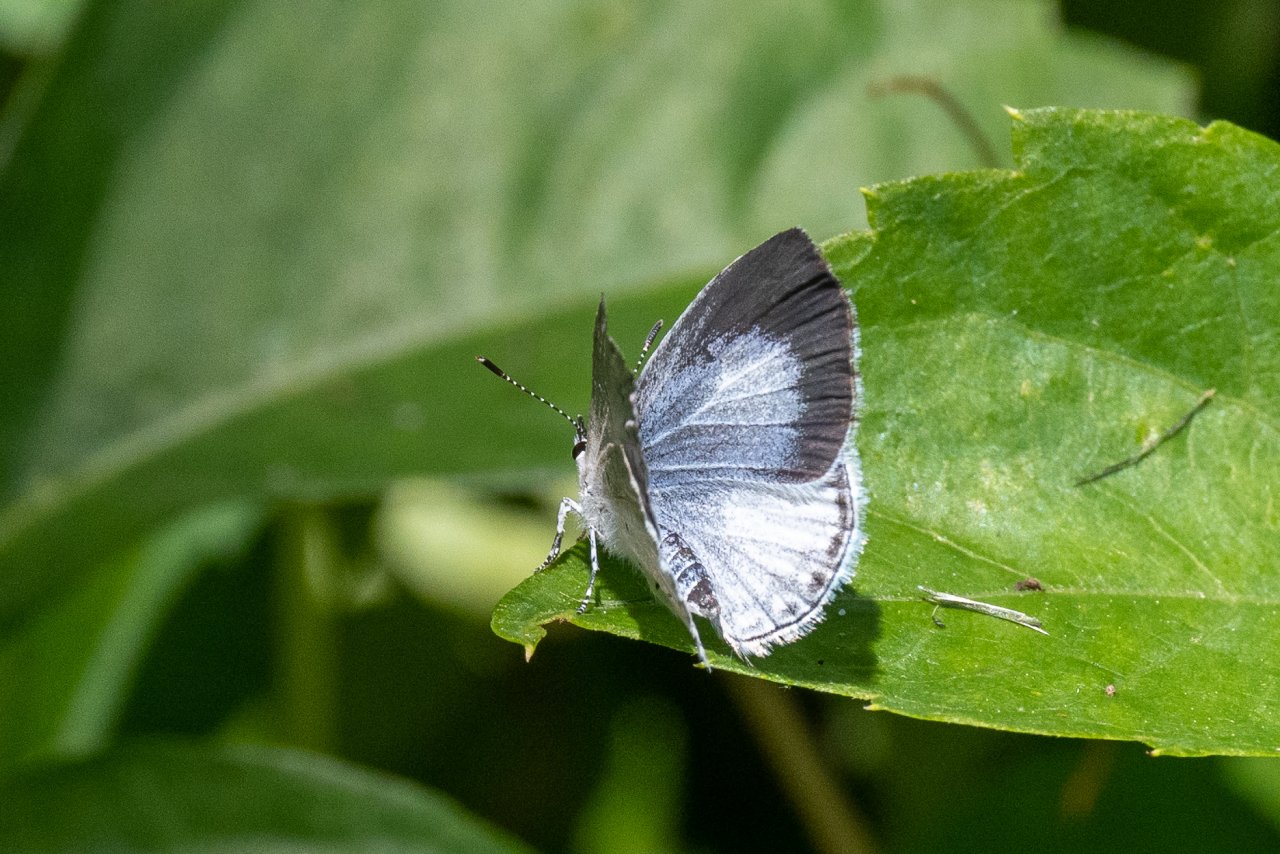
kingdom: Animalia
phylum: Arthropoda
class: Insecta
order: Lepidoptera
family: Lycaenidae
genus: Cyaniris
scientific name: Cyaniris neglecta
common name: Summer Azure
